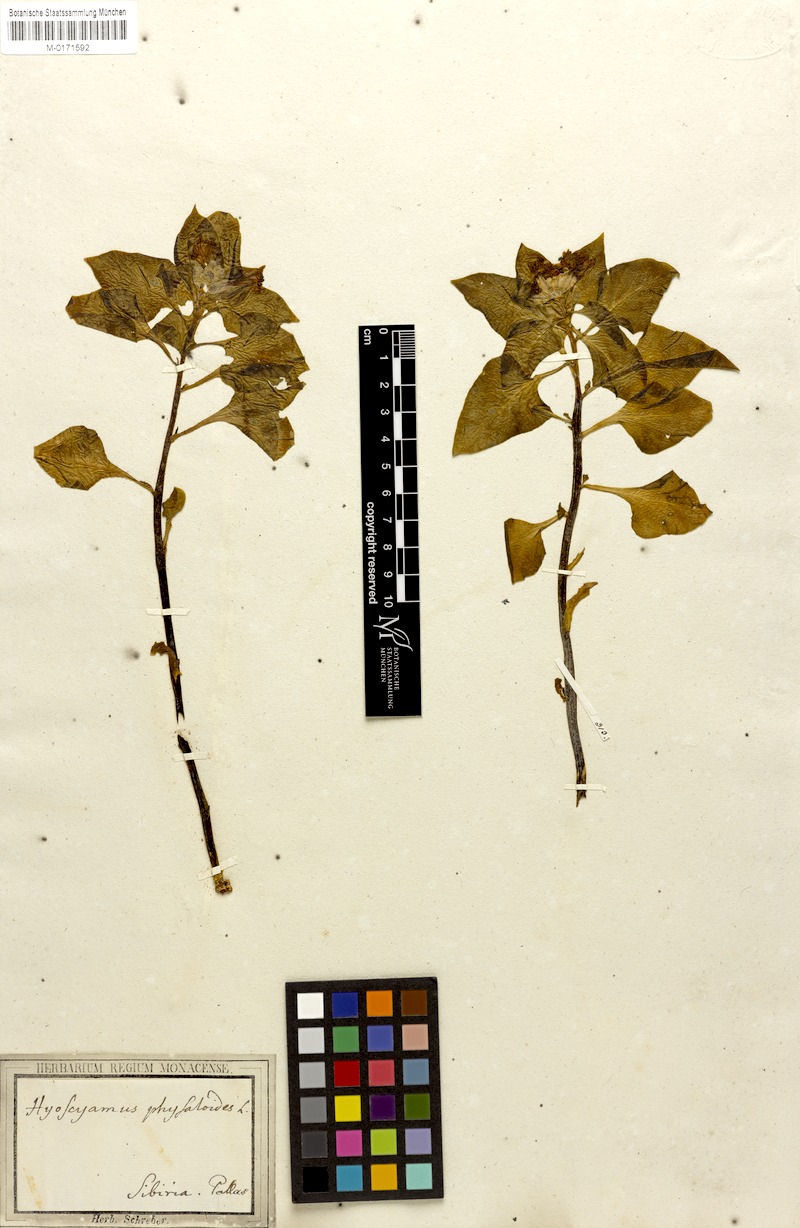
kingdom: Plantae
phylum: Tracheophyta
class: Magnoliopsida
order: Solanales
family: Solanaceae
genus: Physochlaina
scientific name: Physochlaina physaloides
